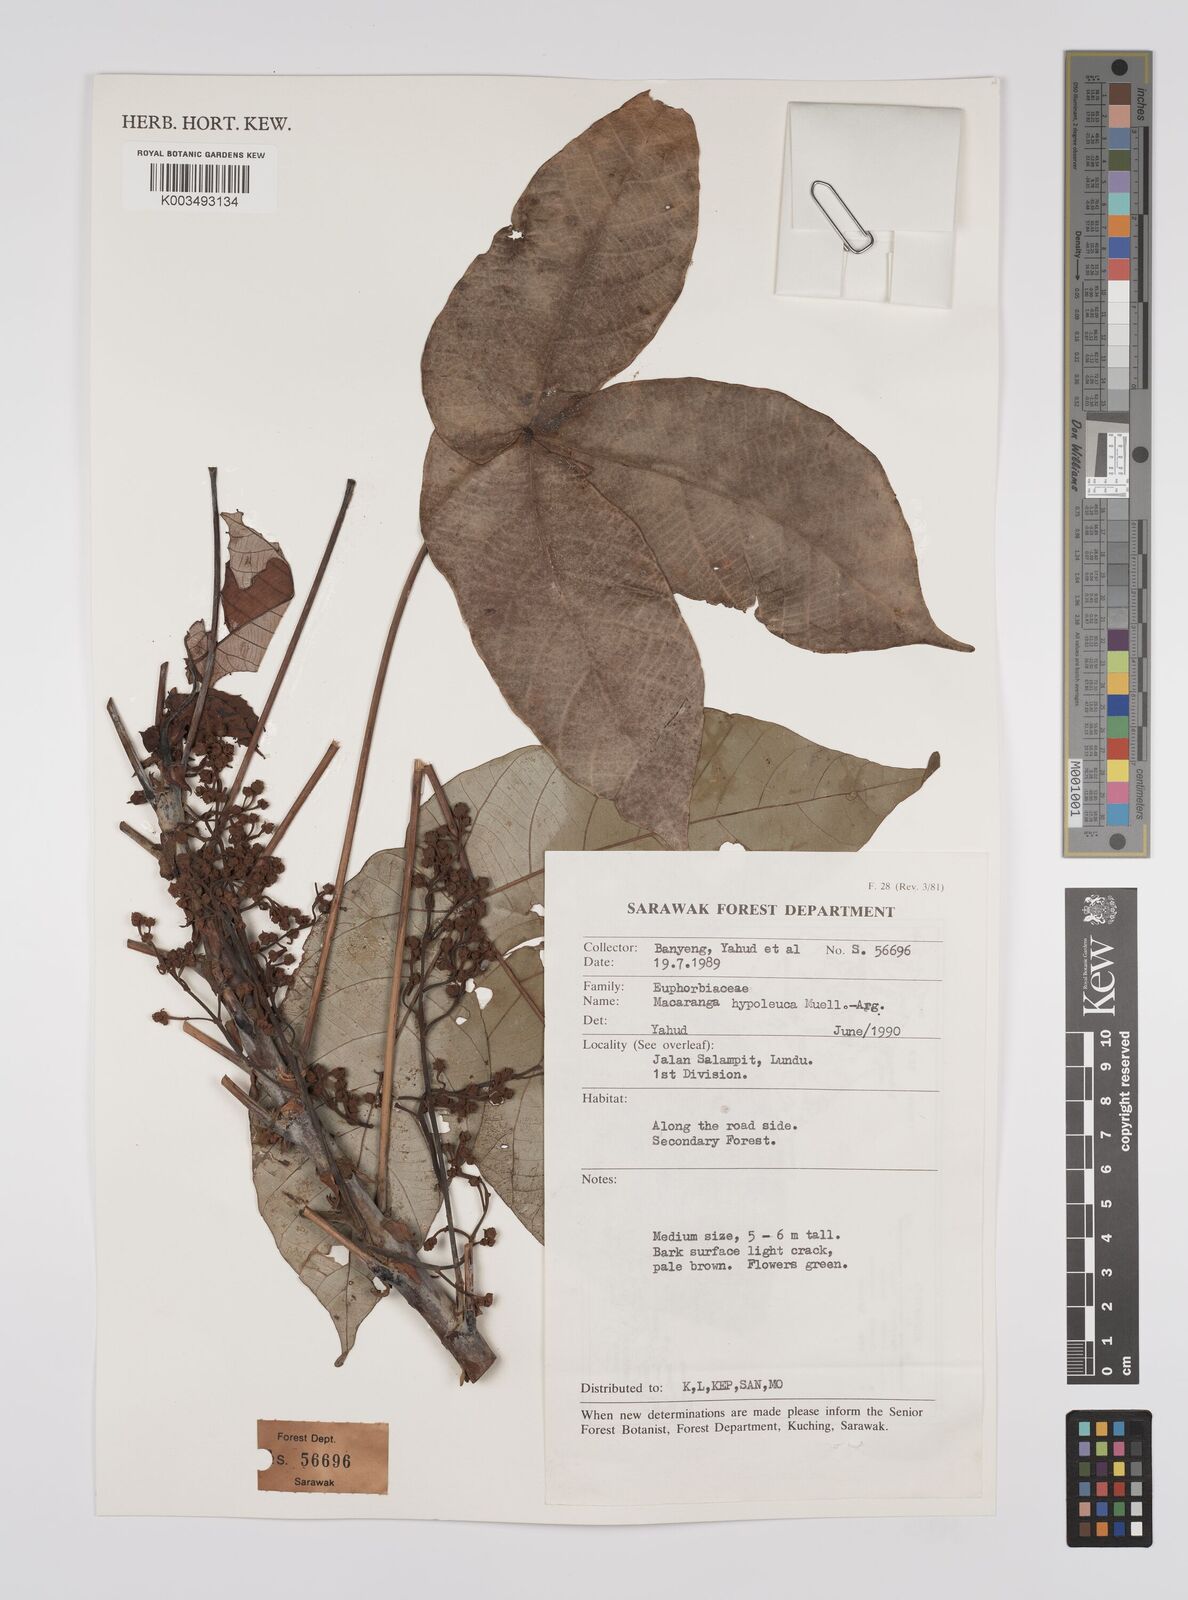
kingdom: Plantae
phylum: Tracheophyta
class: Magnoliopsida
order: Malpighiales
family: Euphorbiaceae
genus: Macaranga
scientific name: Macaranga hypoleuca
